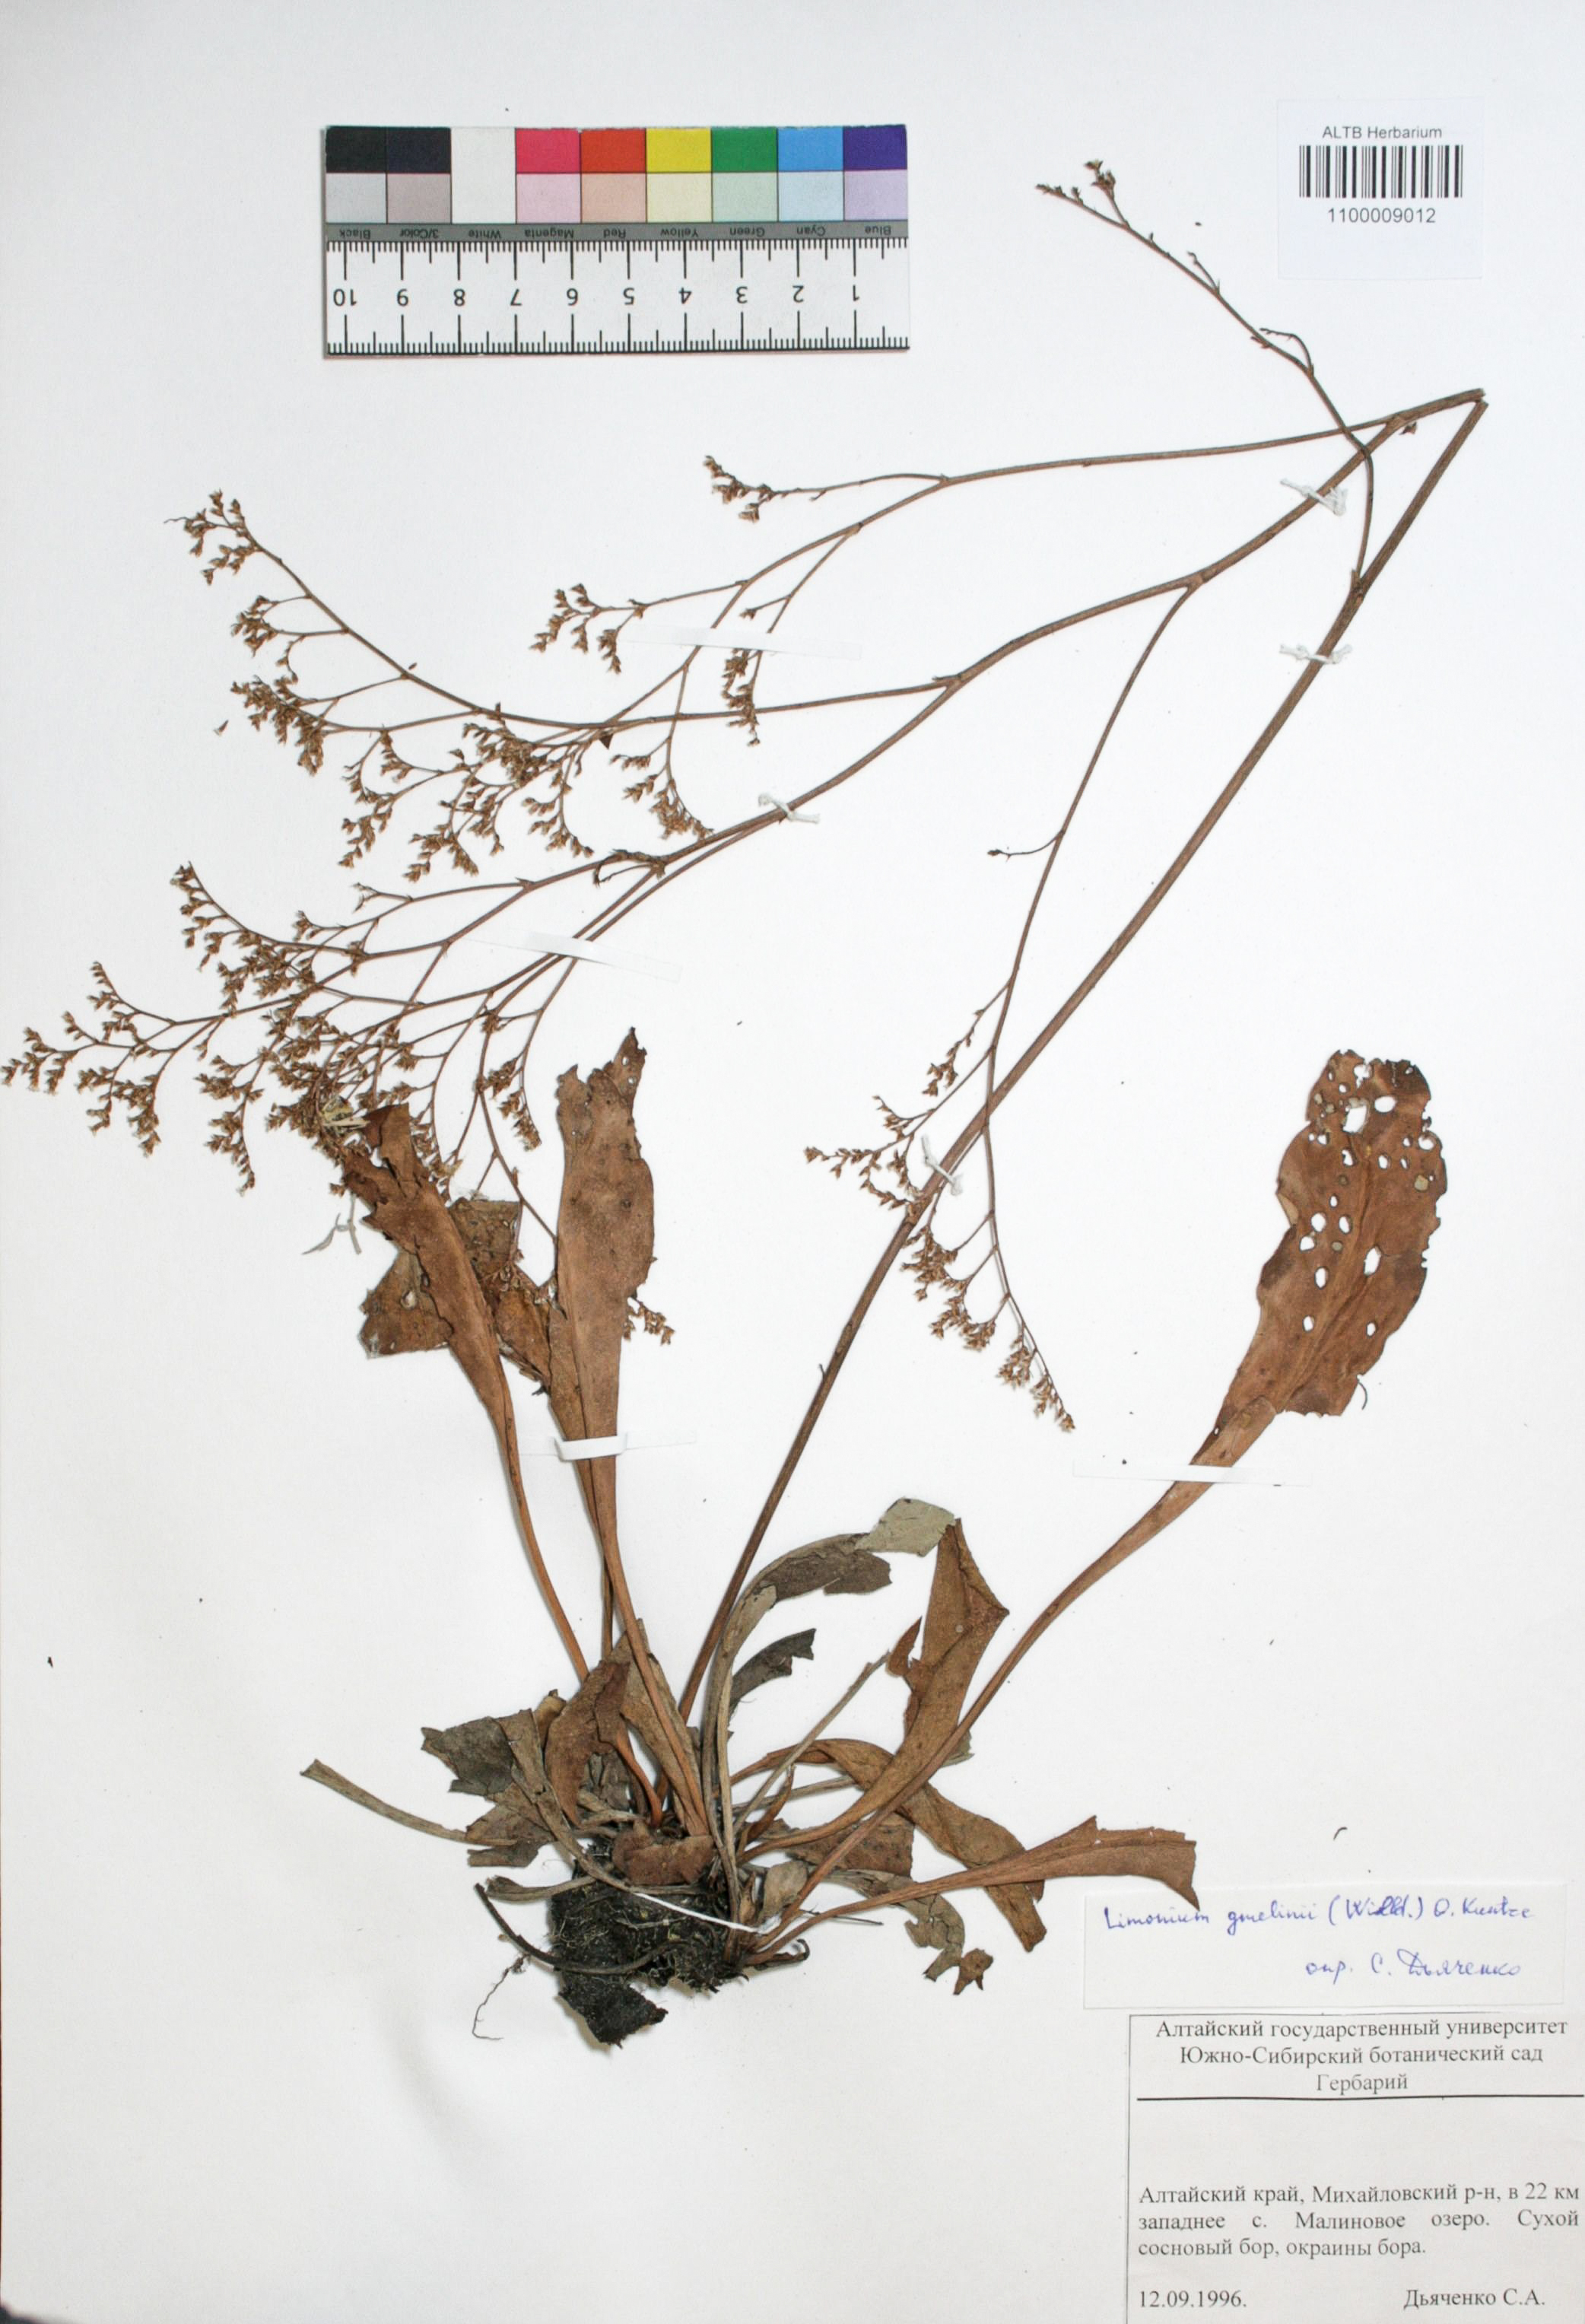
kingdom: Plantae
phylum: Tracheophyta
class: Magnoliopsida
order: Caryophyllales
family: Plumbaginaceae
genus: Limonium
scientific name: Limonium gmelini
